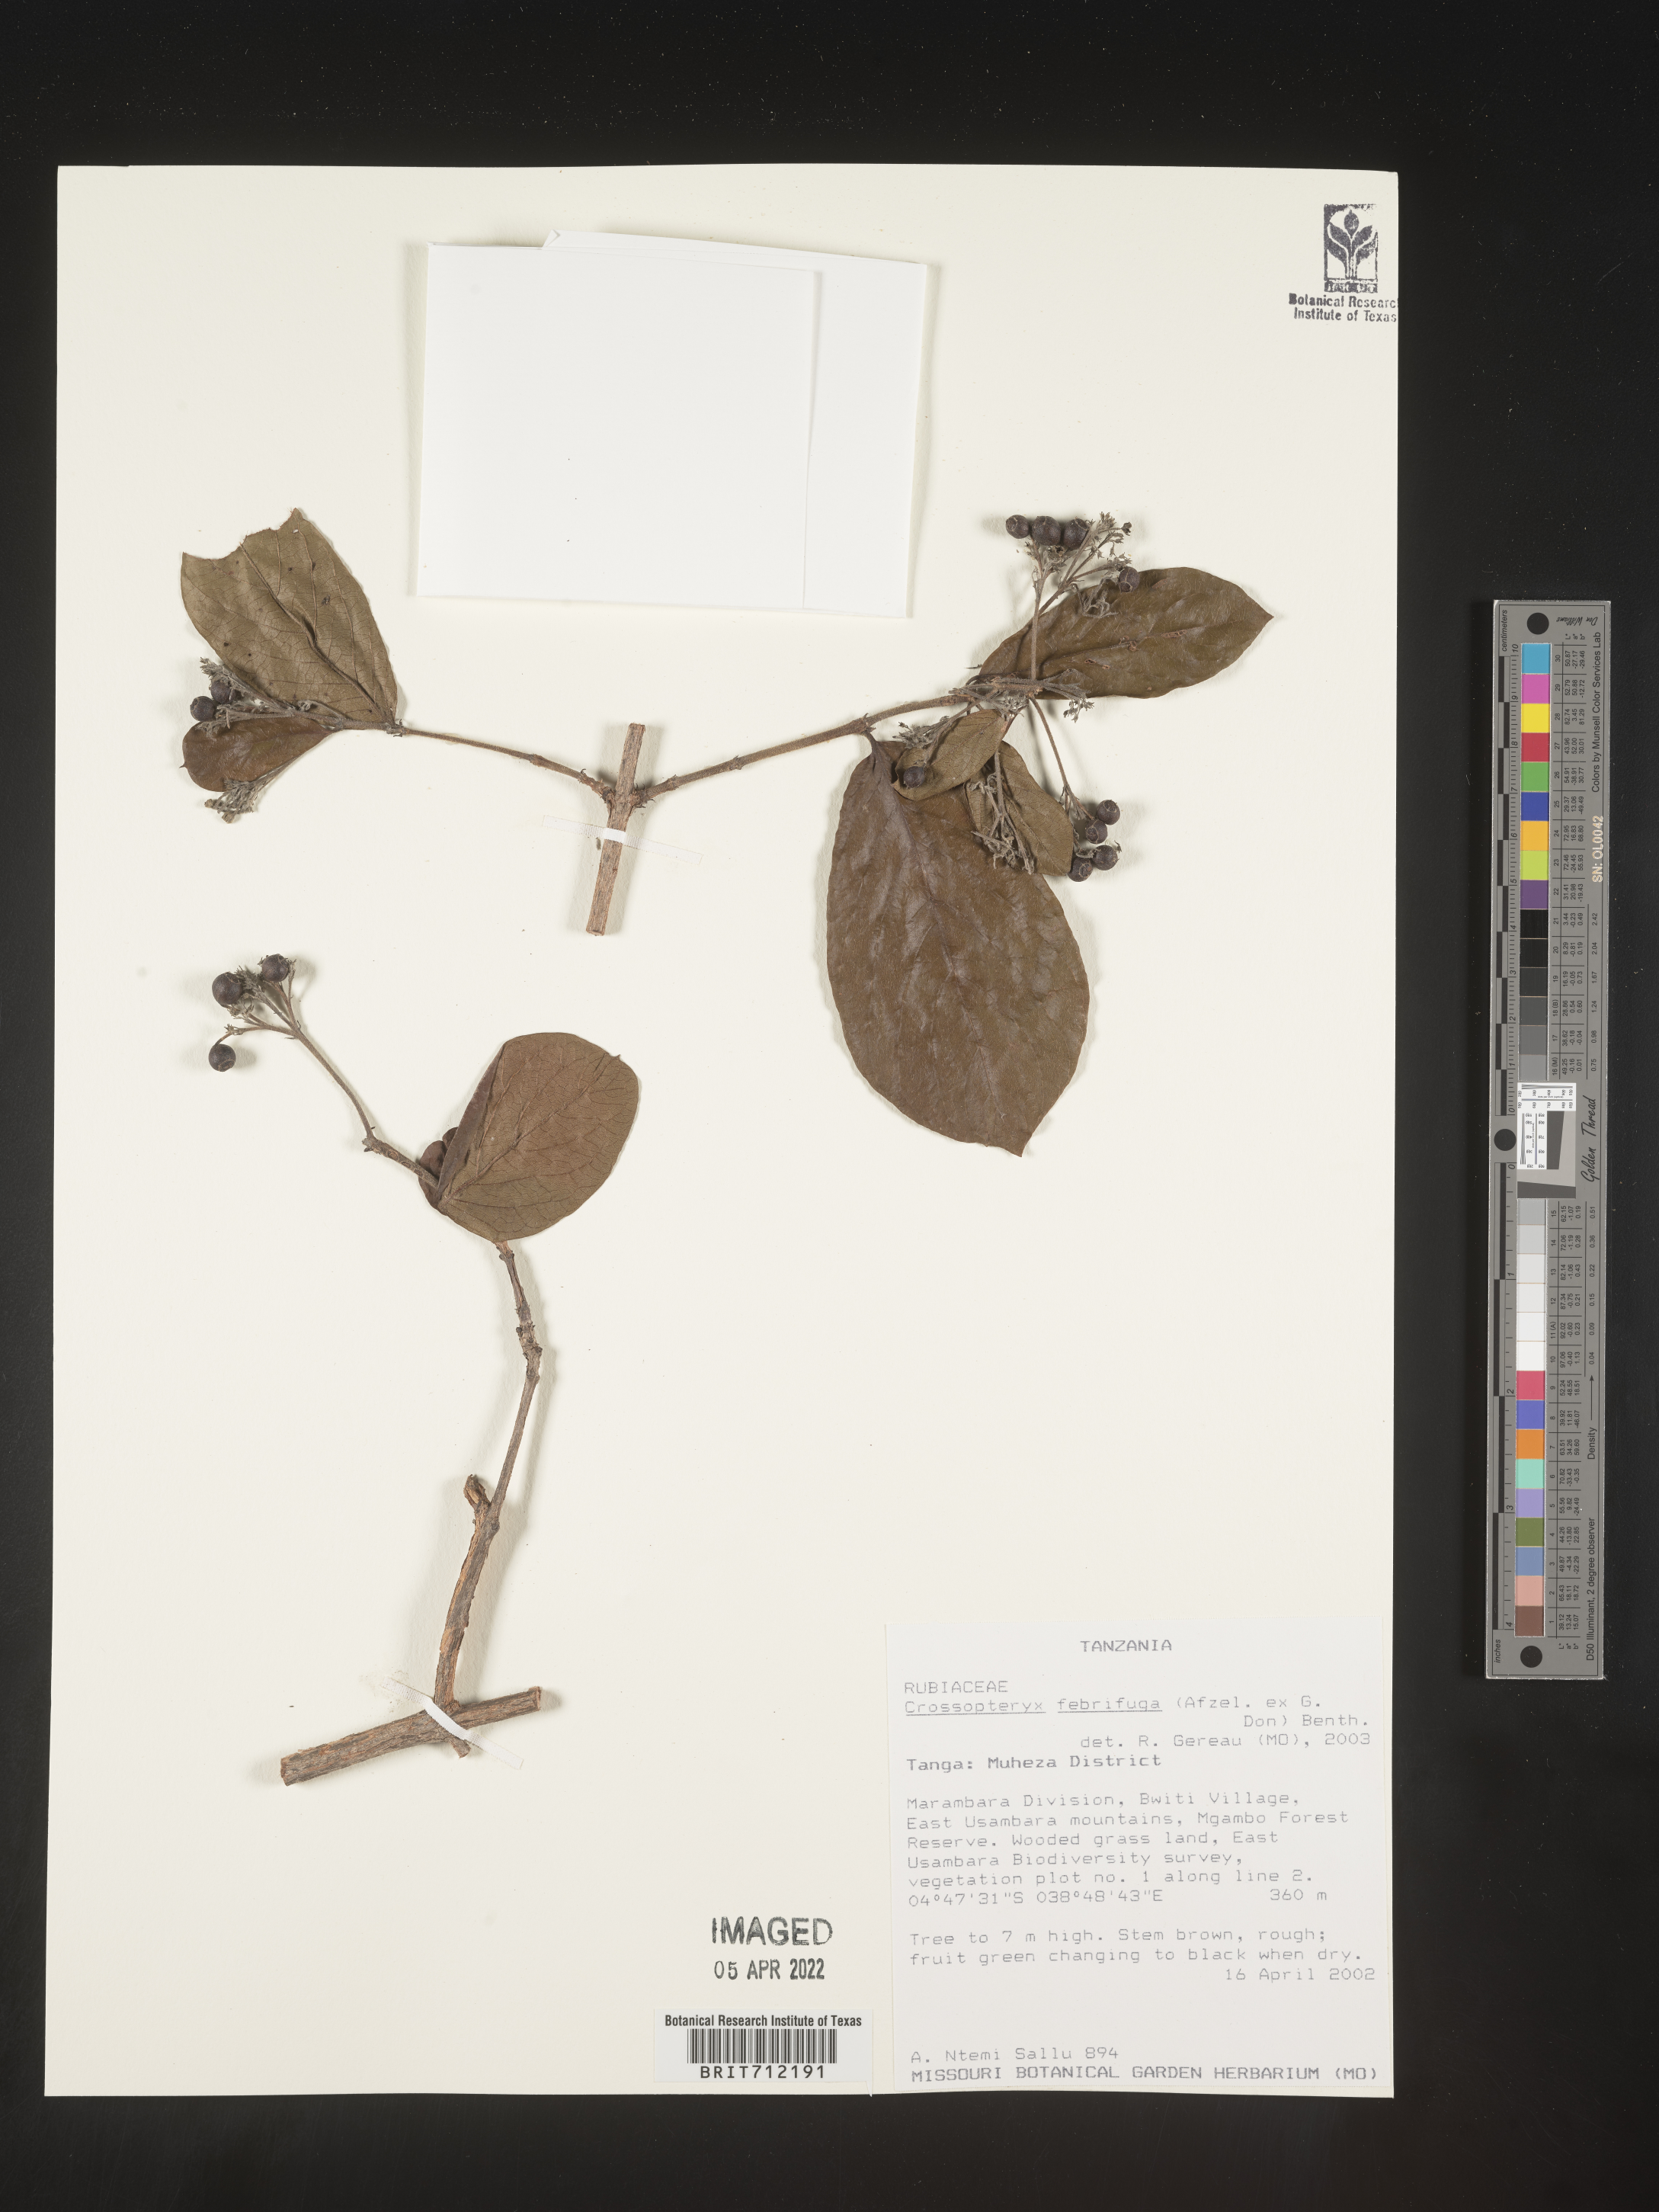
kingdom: Plantae
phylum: Tracheophyta
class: Magnoliopsida
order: Gentianales
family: Rubiaceae
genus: Crossopteryx
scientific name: Crossopteryx
